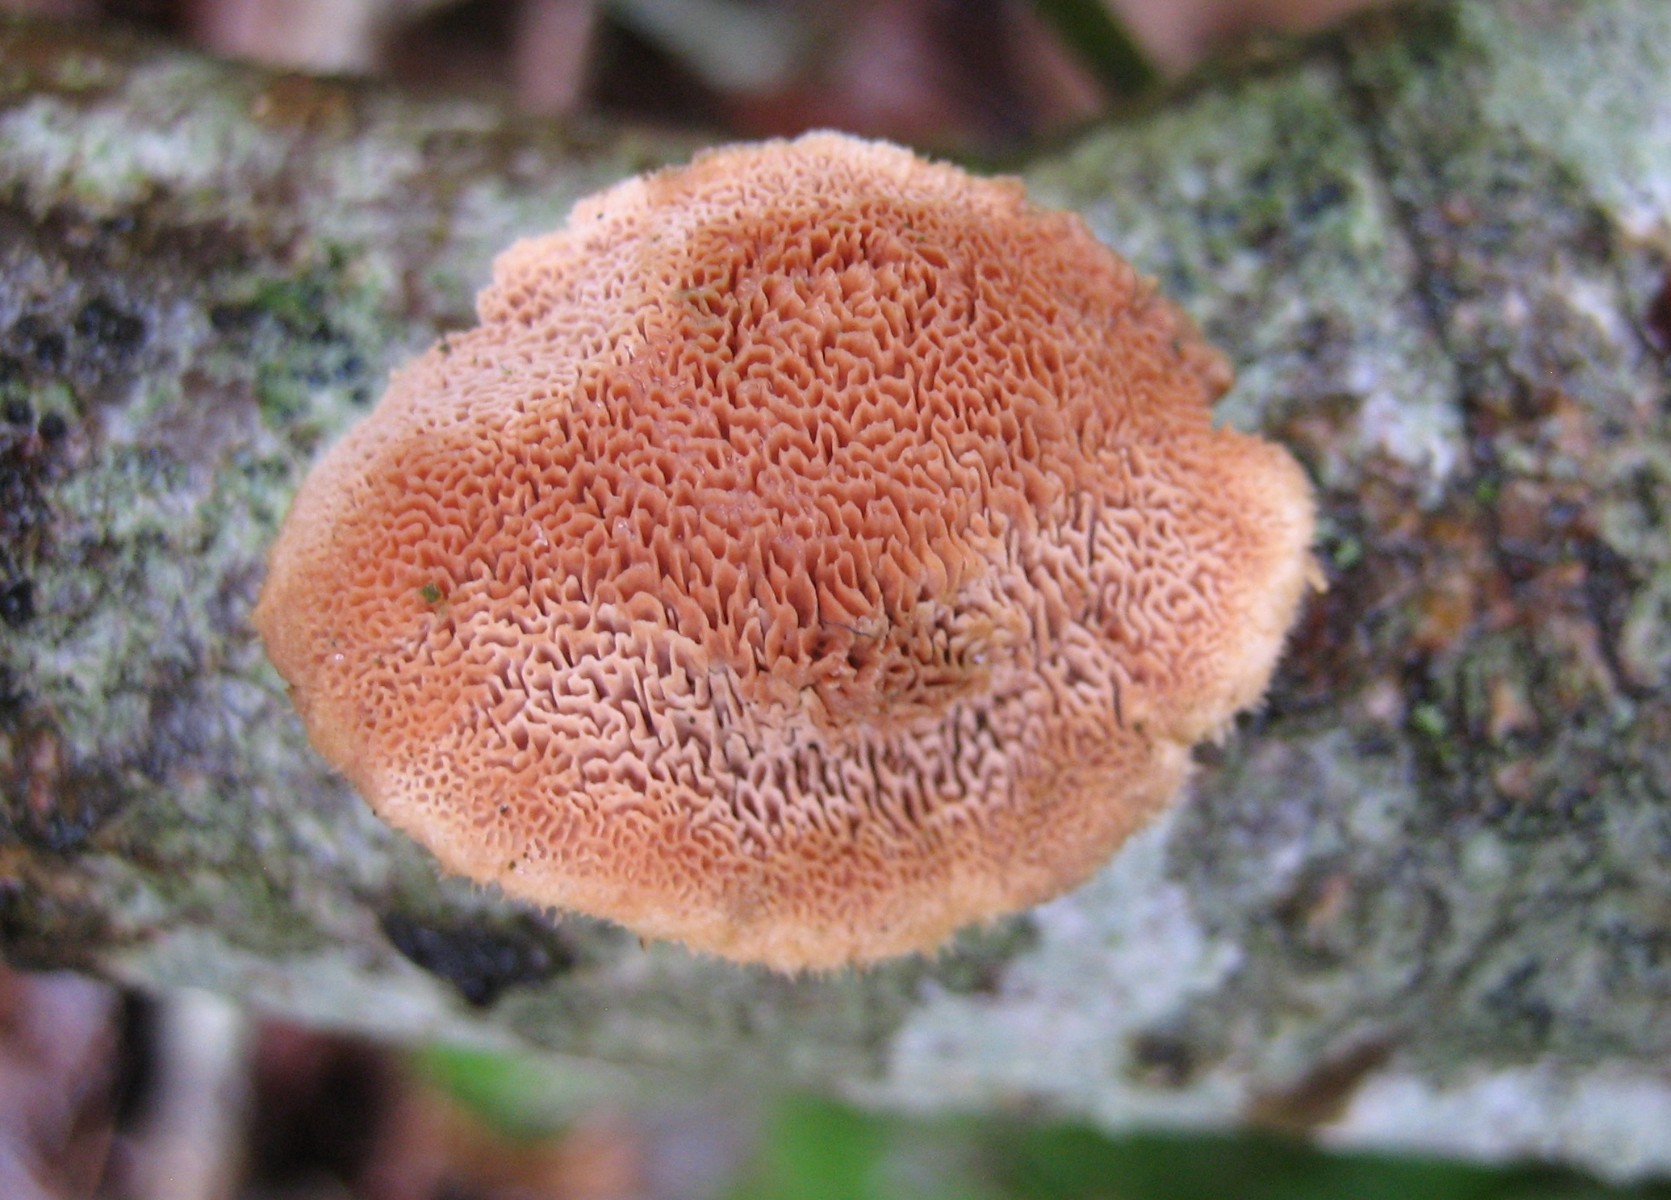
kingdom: Fungi
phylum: Basidiomycota
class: Agaricomycetes
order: Polyporales
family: Phanerochaetaceae
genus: Hapalopilus
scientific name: Hapalopilus rutilans
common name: rødlig okkerporesvamp
